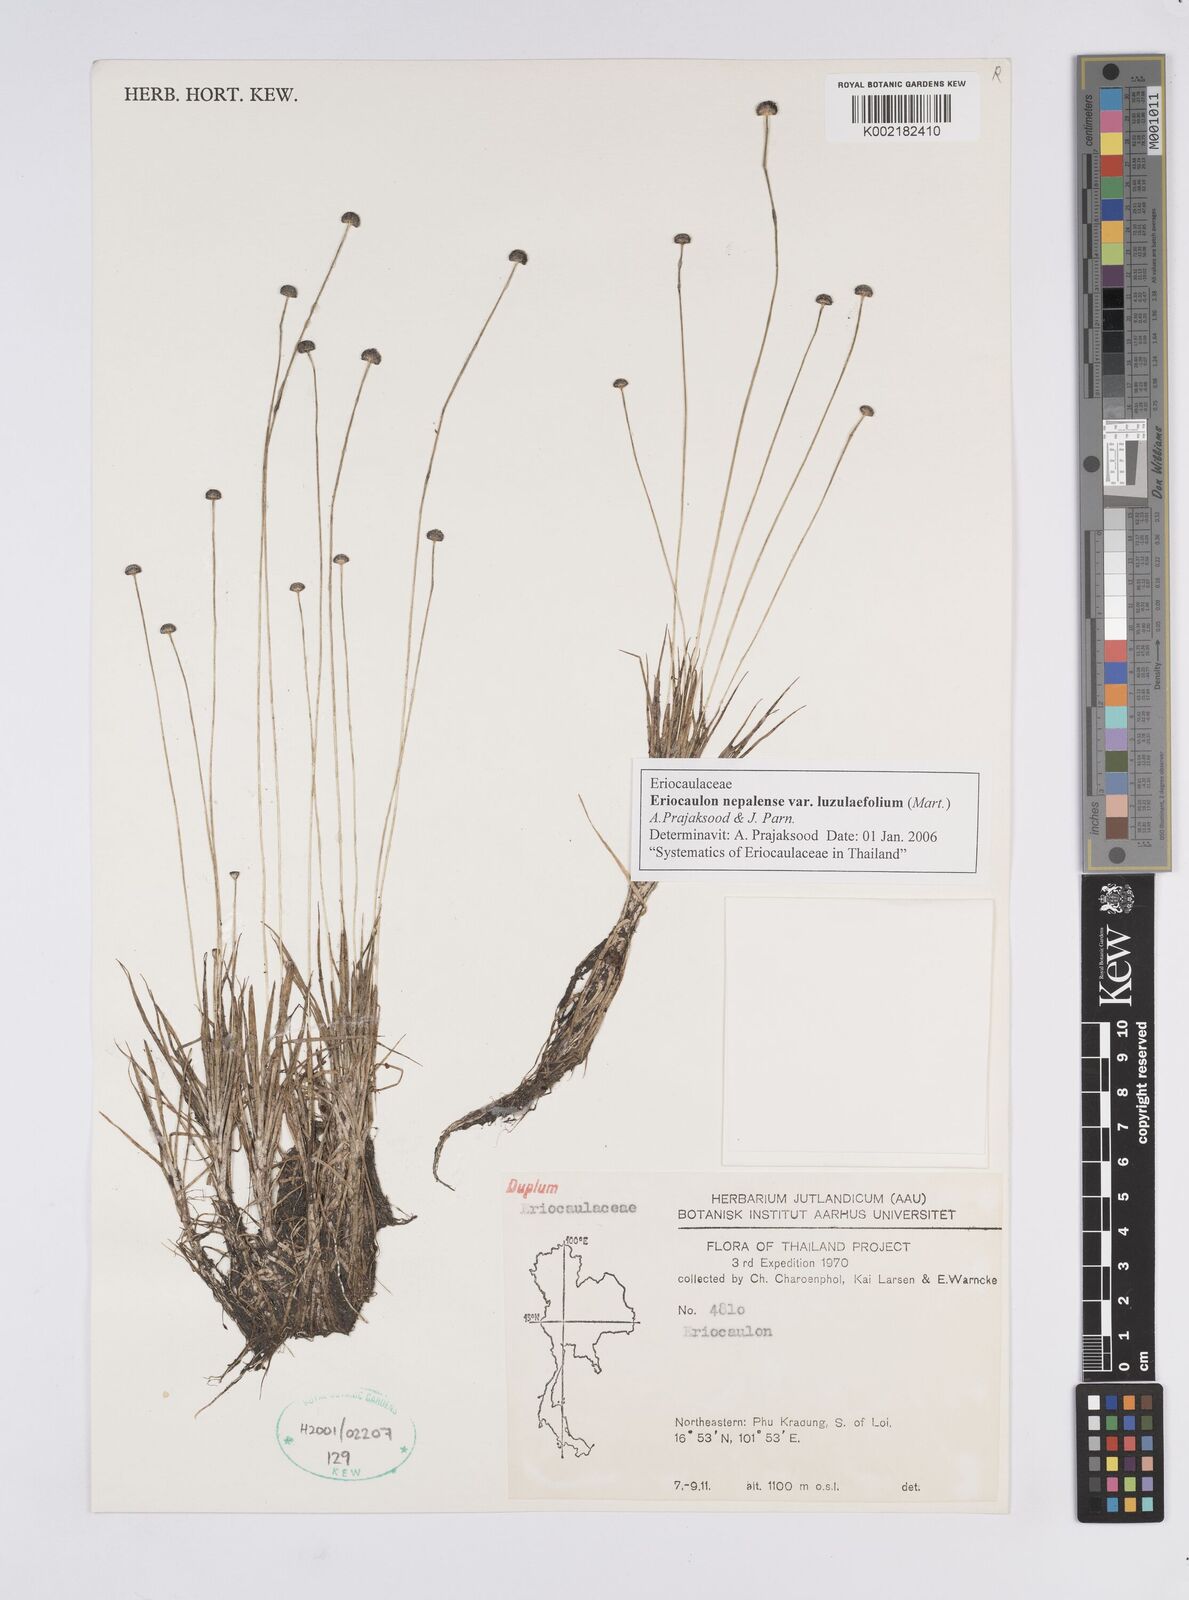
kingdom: Plantae
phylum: Tracheophyta
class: Liliopsida
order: Poales
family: Eriocaulaceae
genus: Eriocaulon
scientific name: Eriocaulon nepalense
